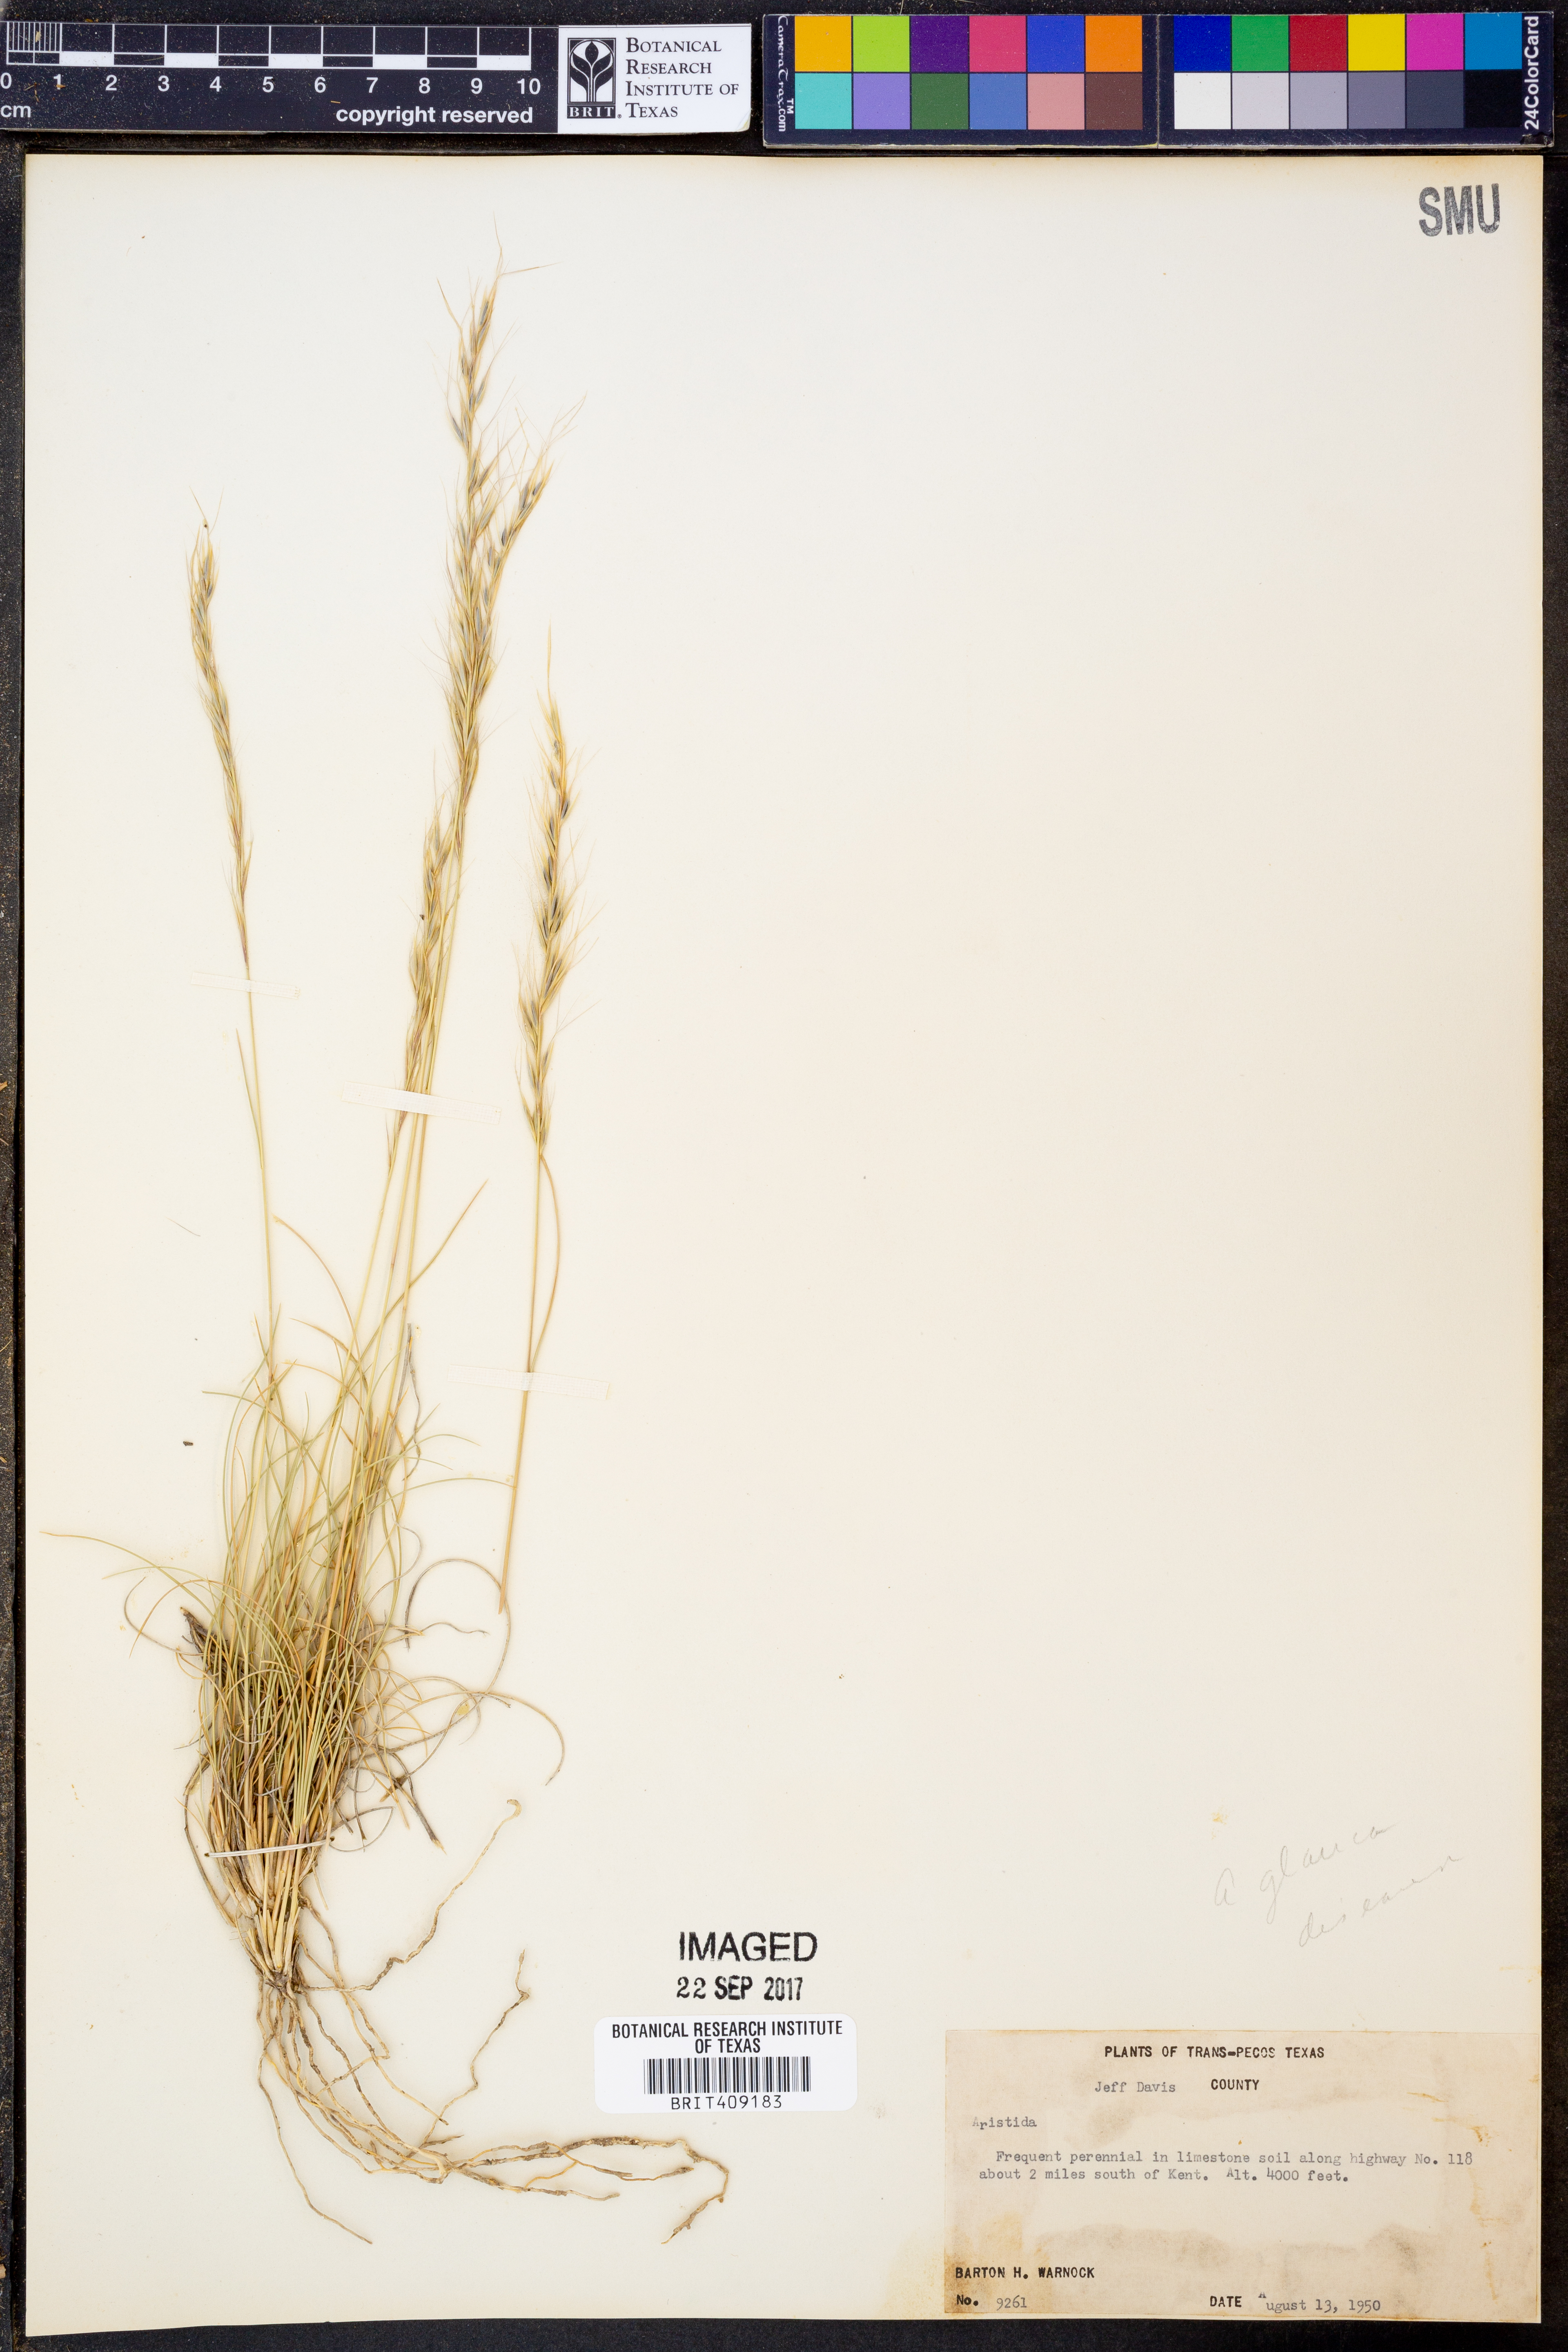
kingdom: Plantae
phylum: Tracheophyta
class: Liliopsida
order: Poales
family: Poaceae
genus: Aristida
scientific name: Aristida
